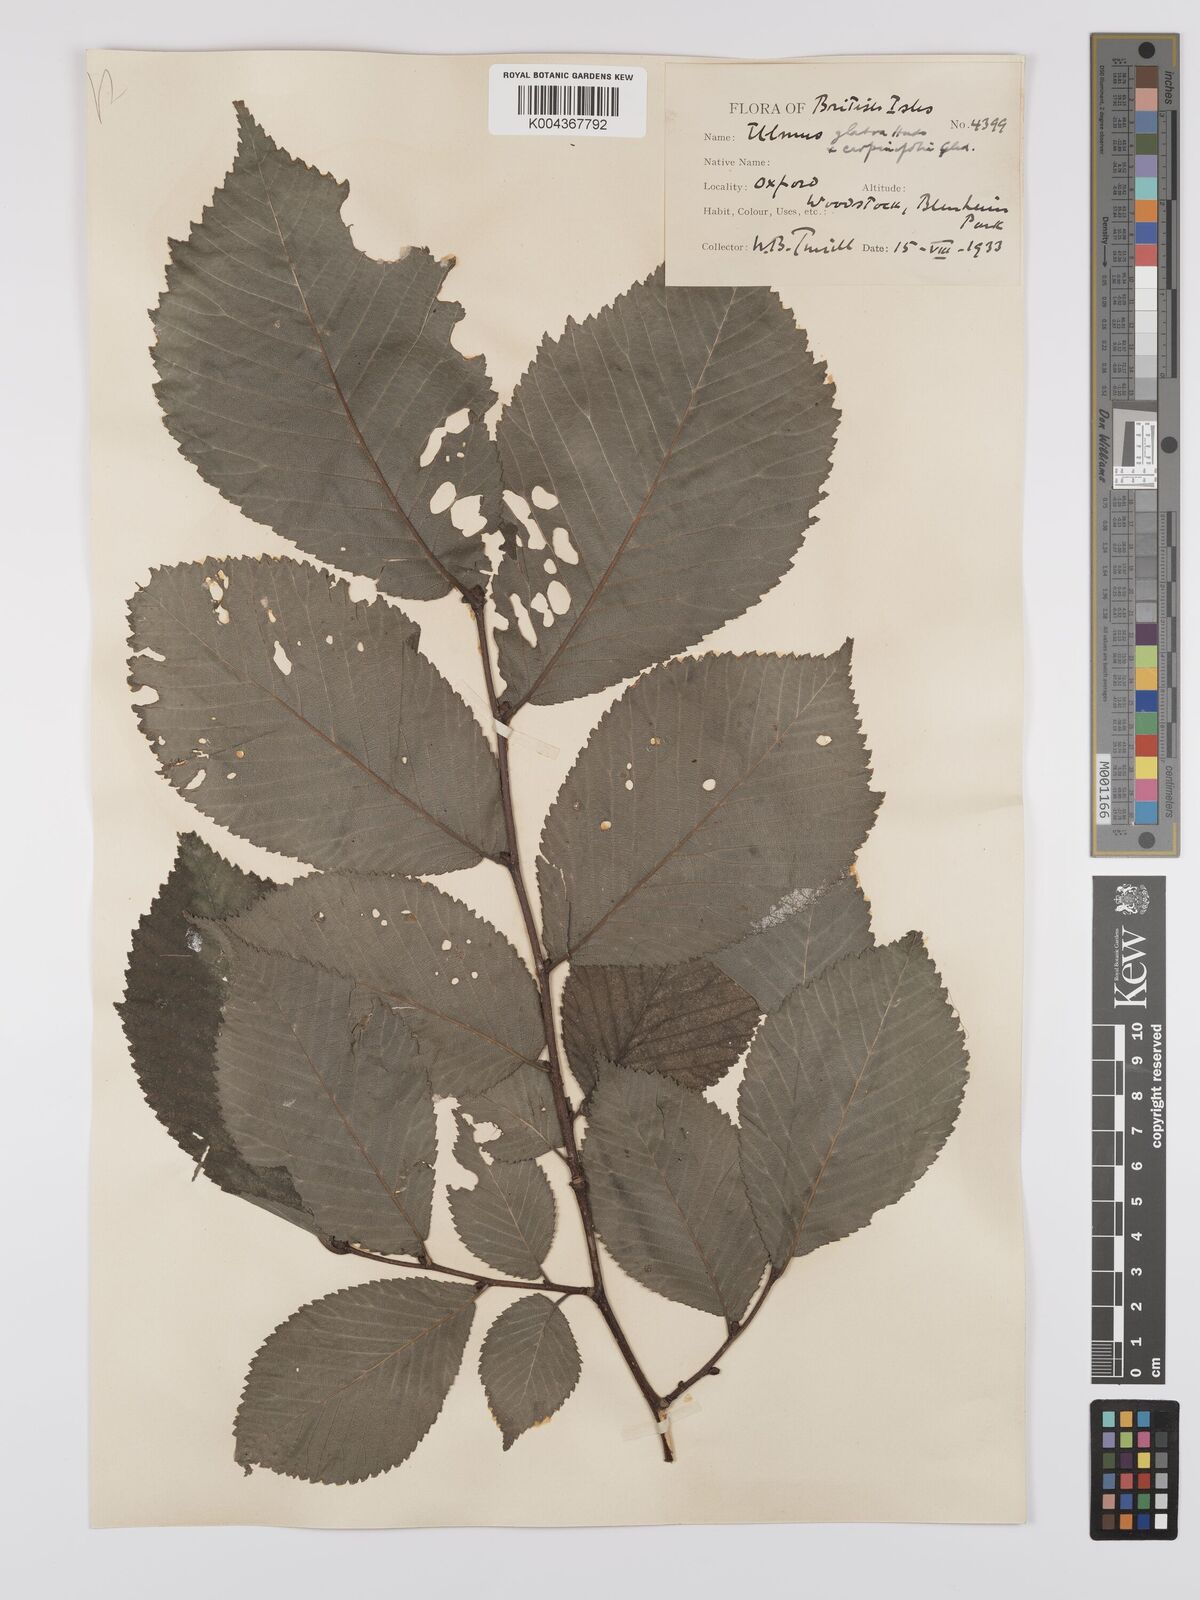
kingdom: Plantae
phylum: Tracheophyta
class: Magnoliopsida
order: Rosales
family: Ulmaceae
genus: Ulmus
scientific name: Ulmus
